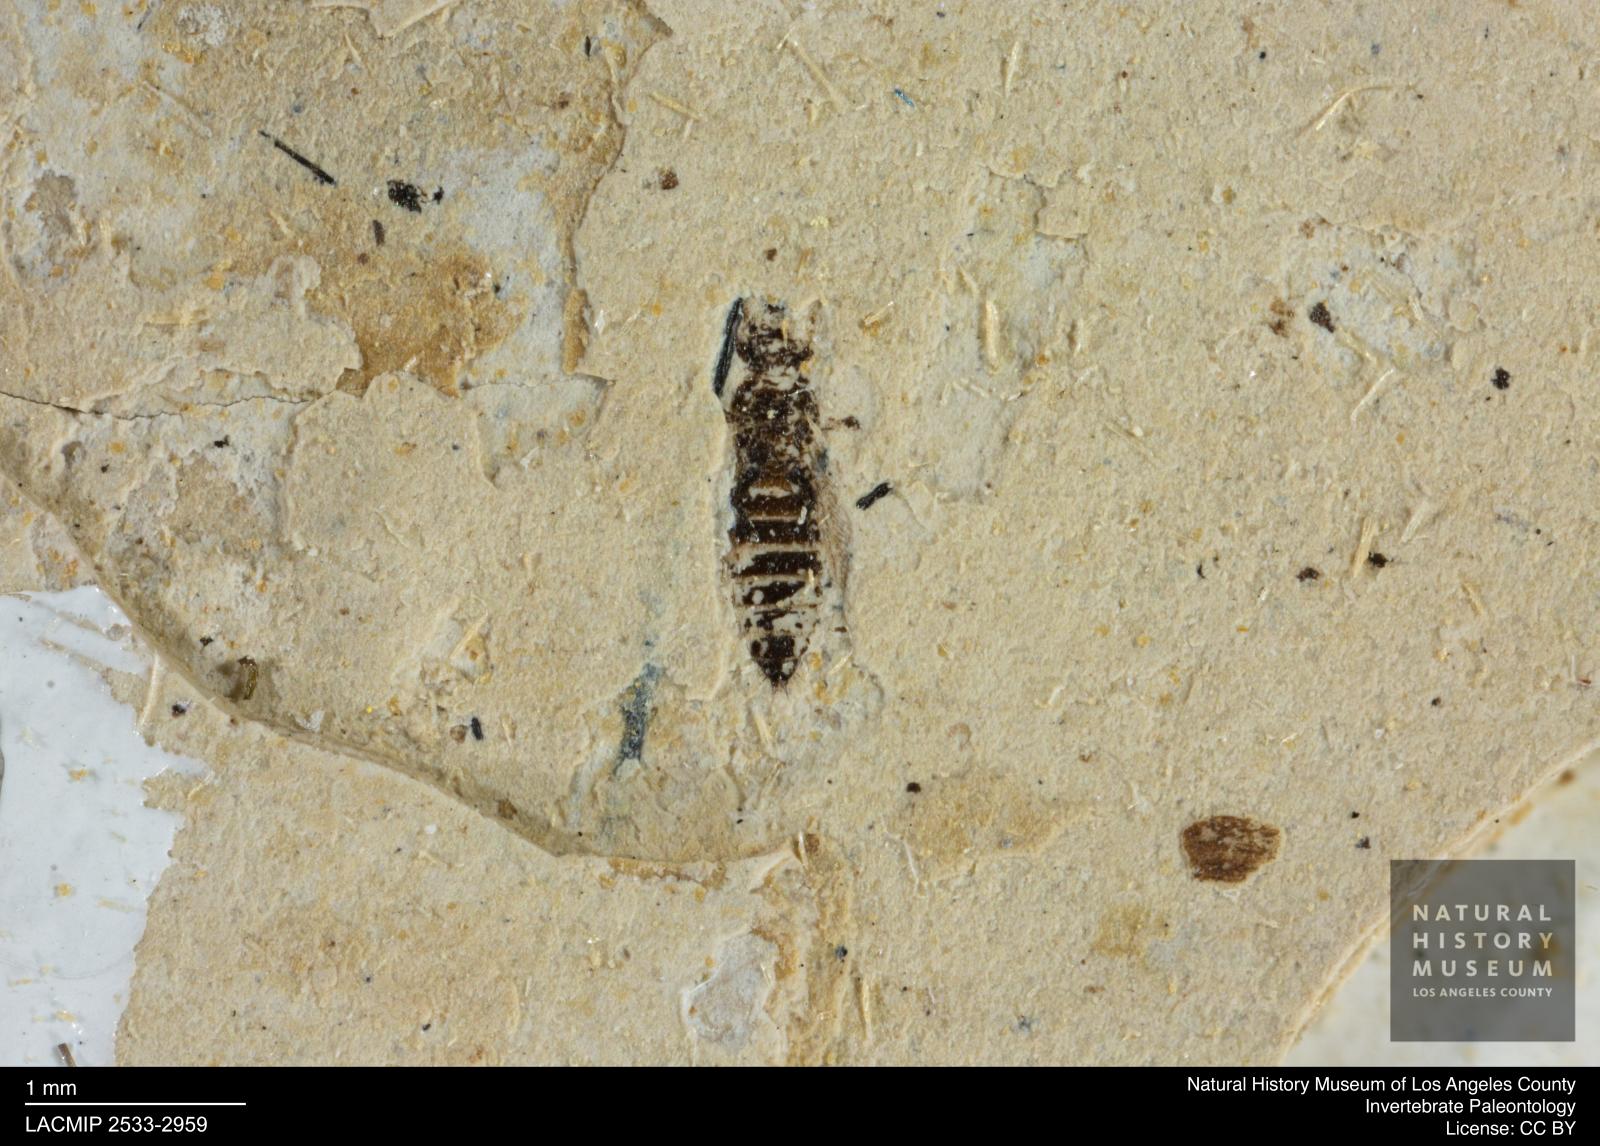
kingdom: Animalia
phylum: Arthropoda
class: Insecta
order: Thysanoptera
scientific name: Thysanoptera
